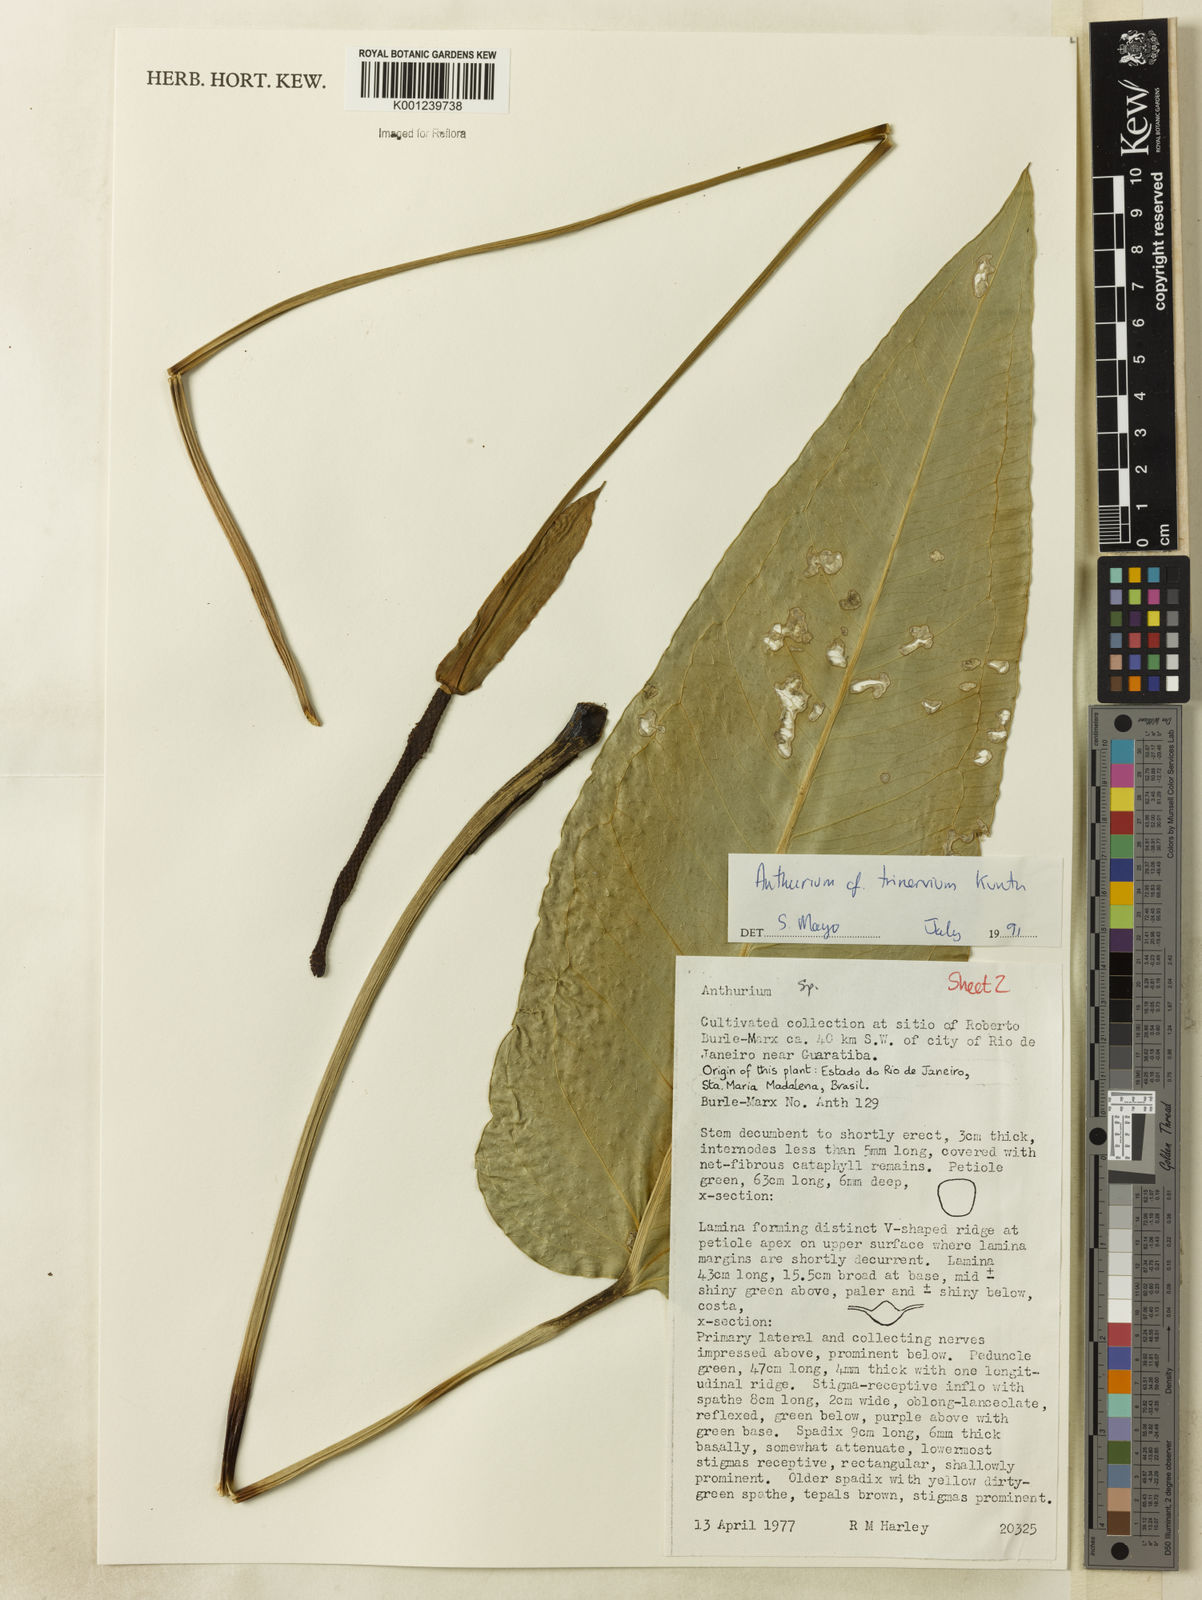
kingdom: Plantae
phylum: Tracheophyta
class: Liliopsida
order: Alismatales
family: Araceae
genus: Anthurium
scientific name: Anthurium trinervium
